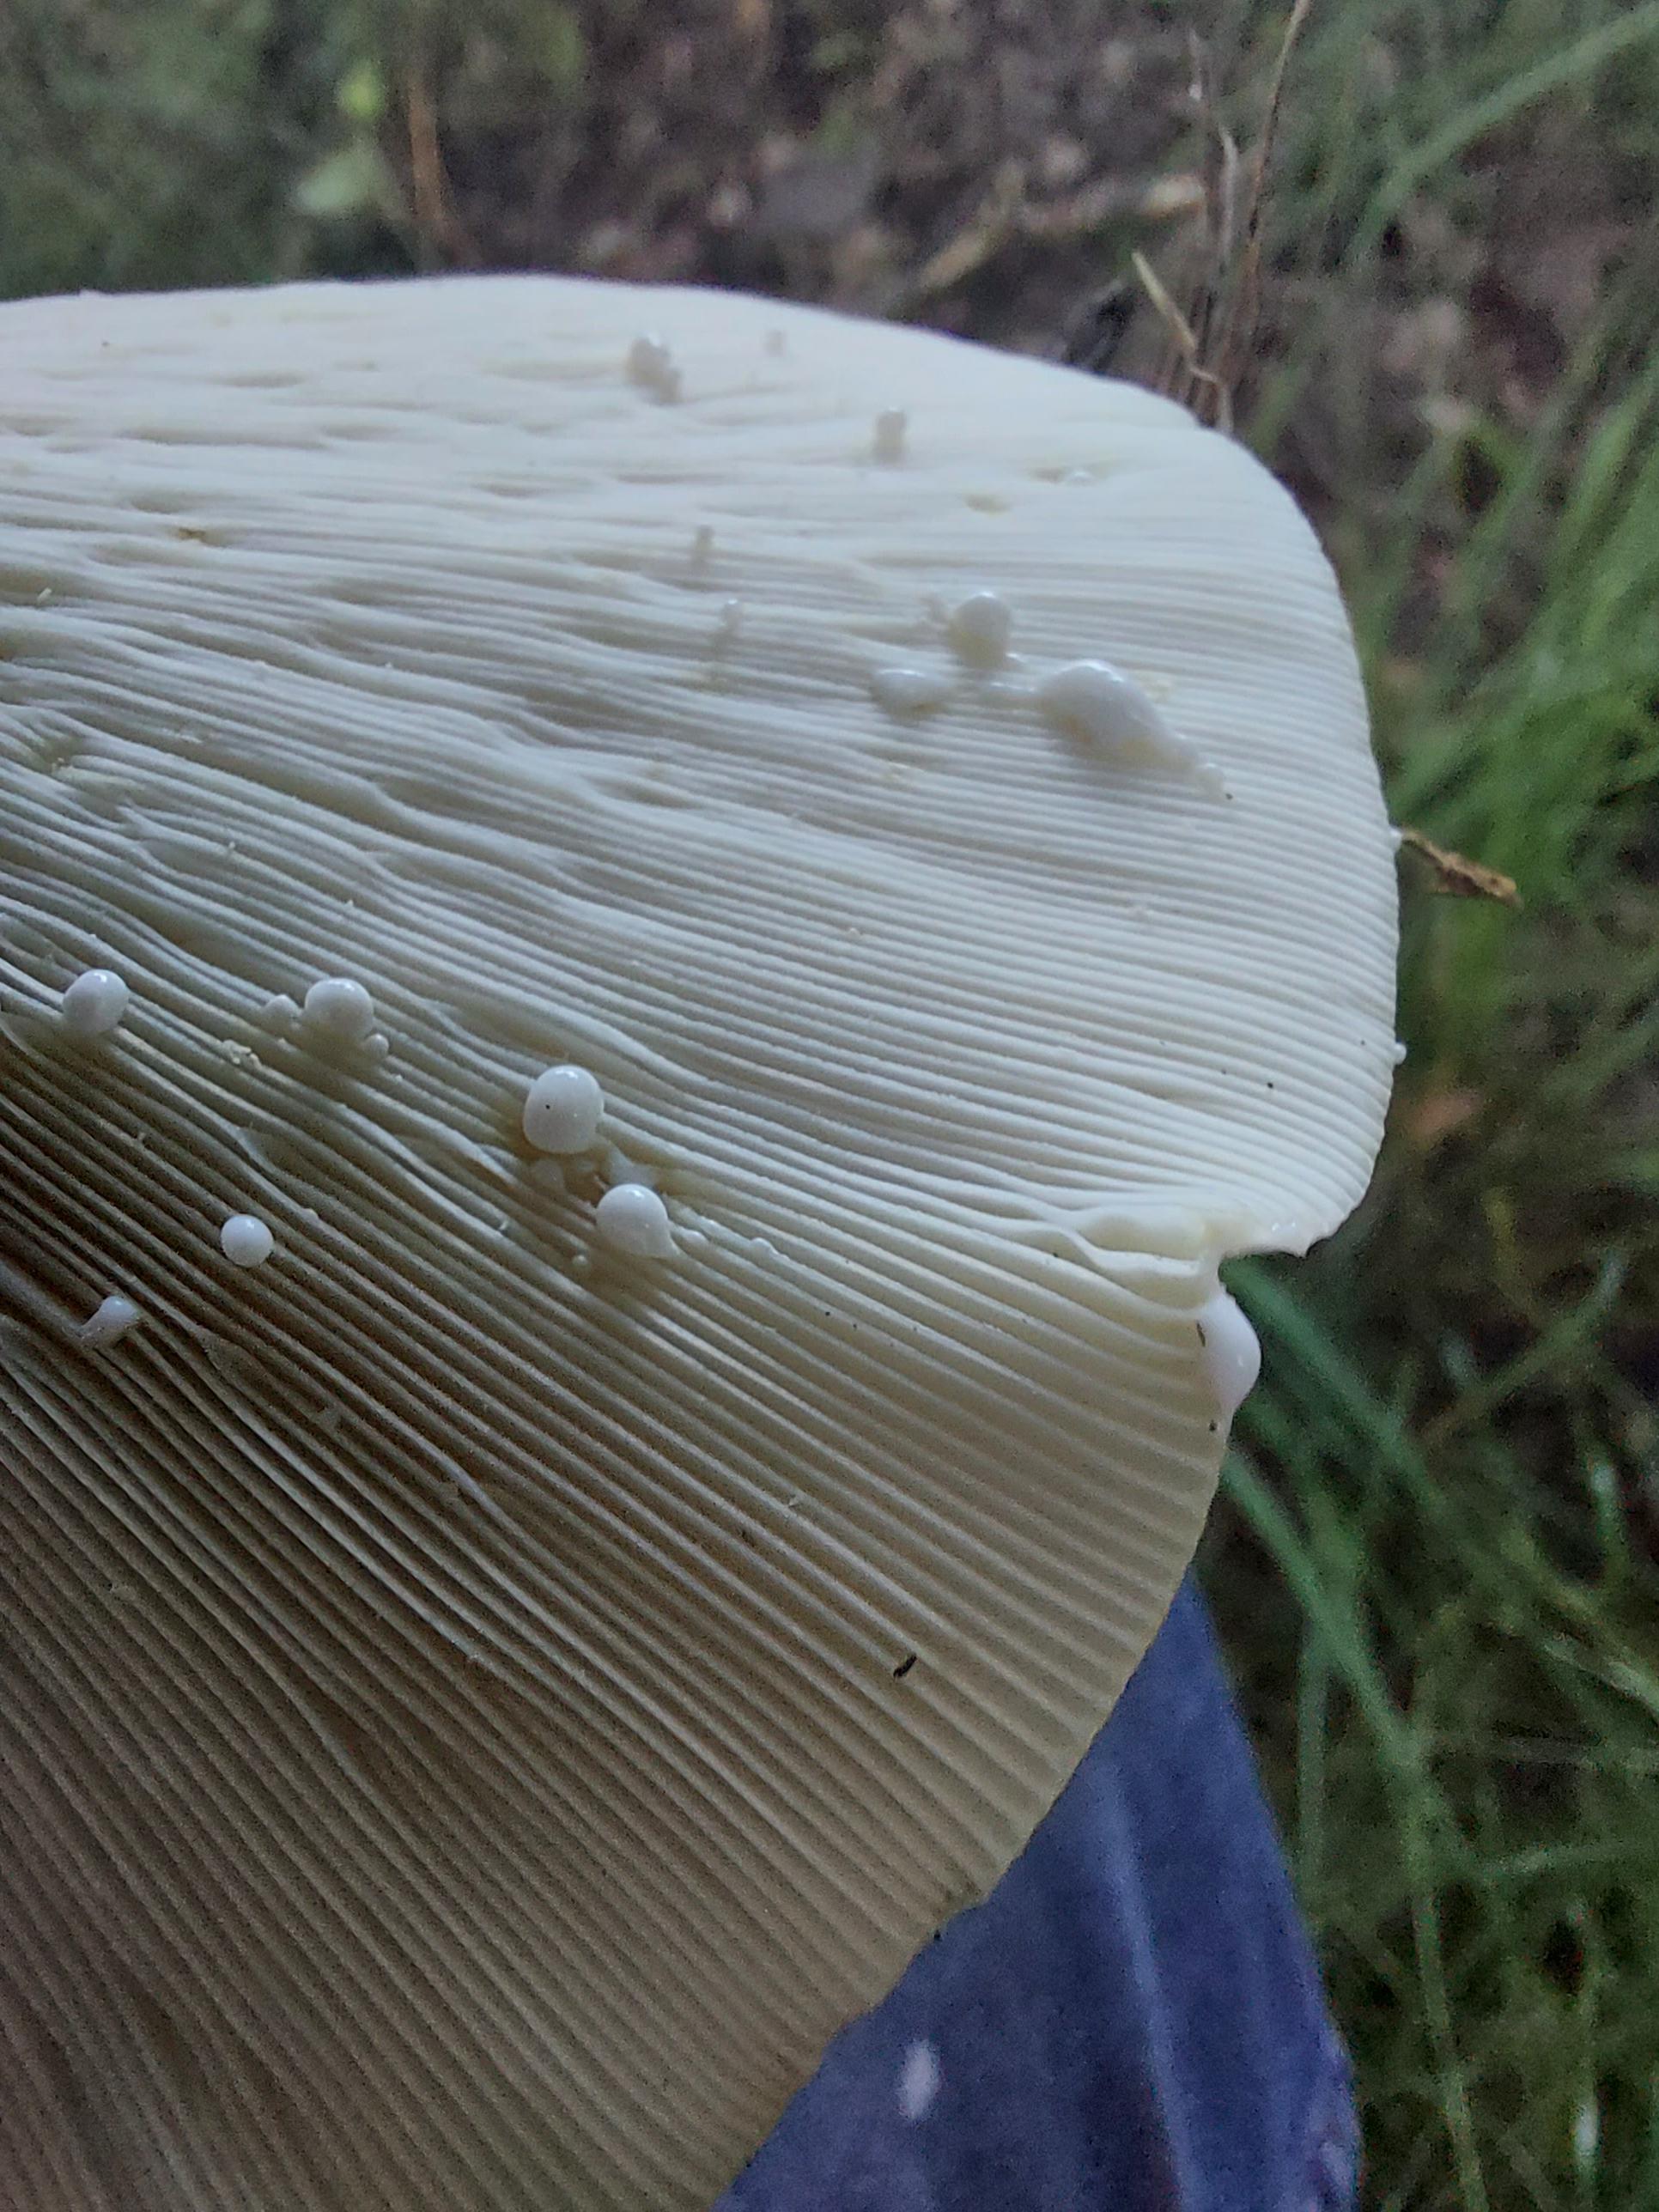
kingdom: Fungi
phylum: Basidiomycota
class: Agaricomycetes
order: Russulales
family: Russulaceae
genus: Lactifluus
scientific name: Lactifluus
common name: mælkehat
